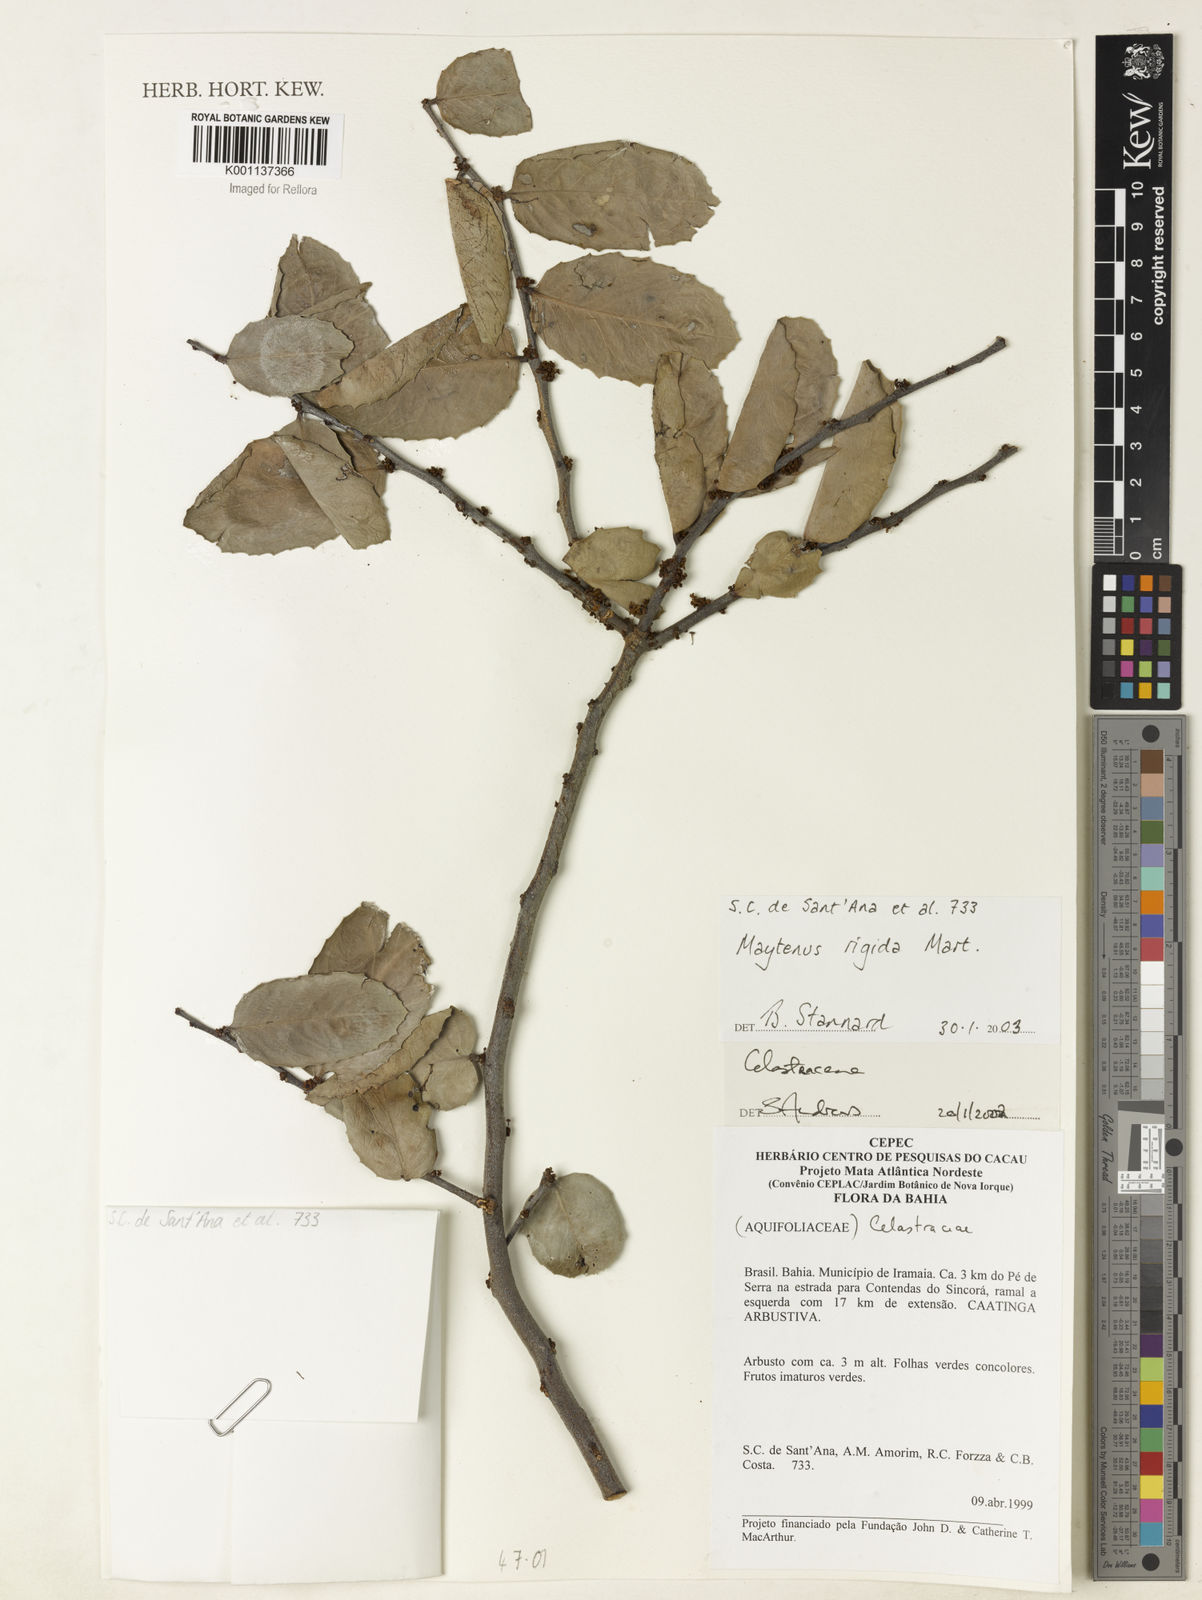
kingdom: Plantae
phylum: Tracheophyta
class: Magnoliopsida
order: Celastrales
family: Celastraceae
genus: Monteverdia
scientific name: Monteverdia rigida
